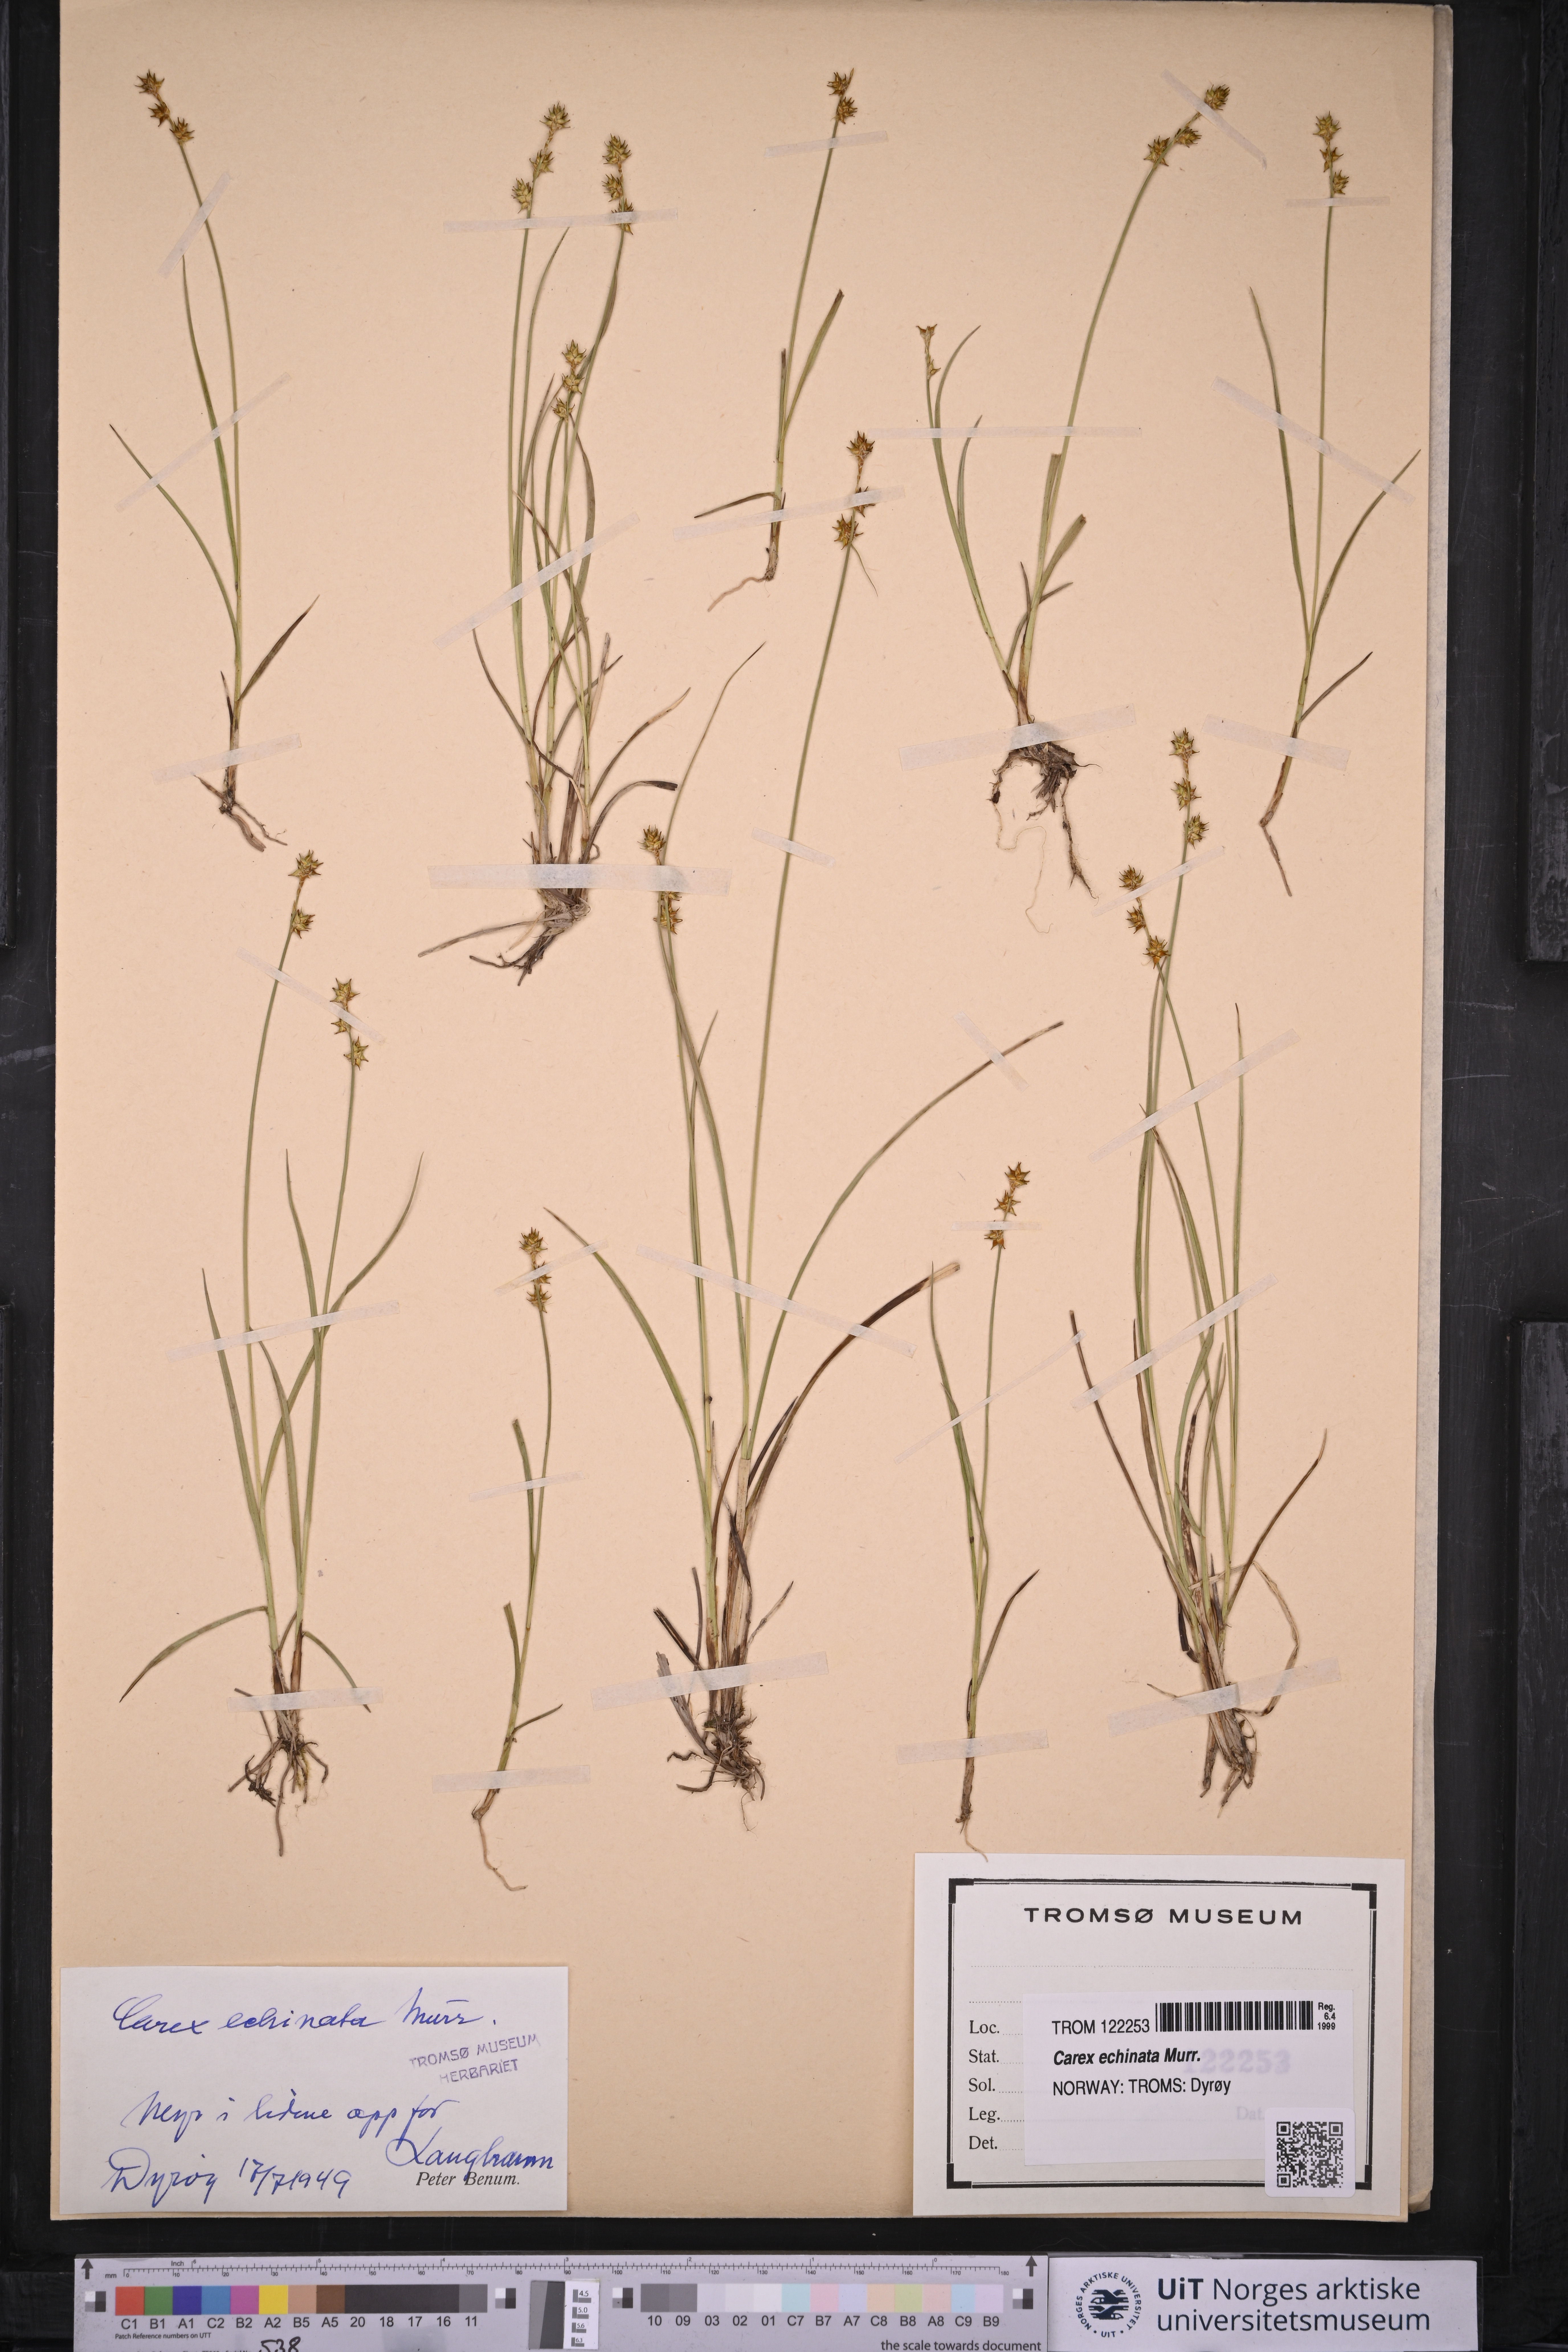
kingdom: Plantae
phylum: Tracheophyta
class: Liliopsida
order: Poales
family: Cyperaceae
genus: Carex
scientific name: Carex echinata
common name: Star sedge
